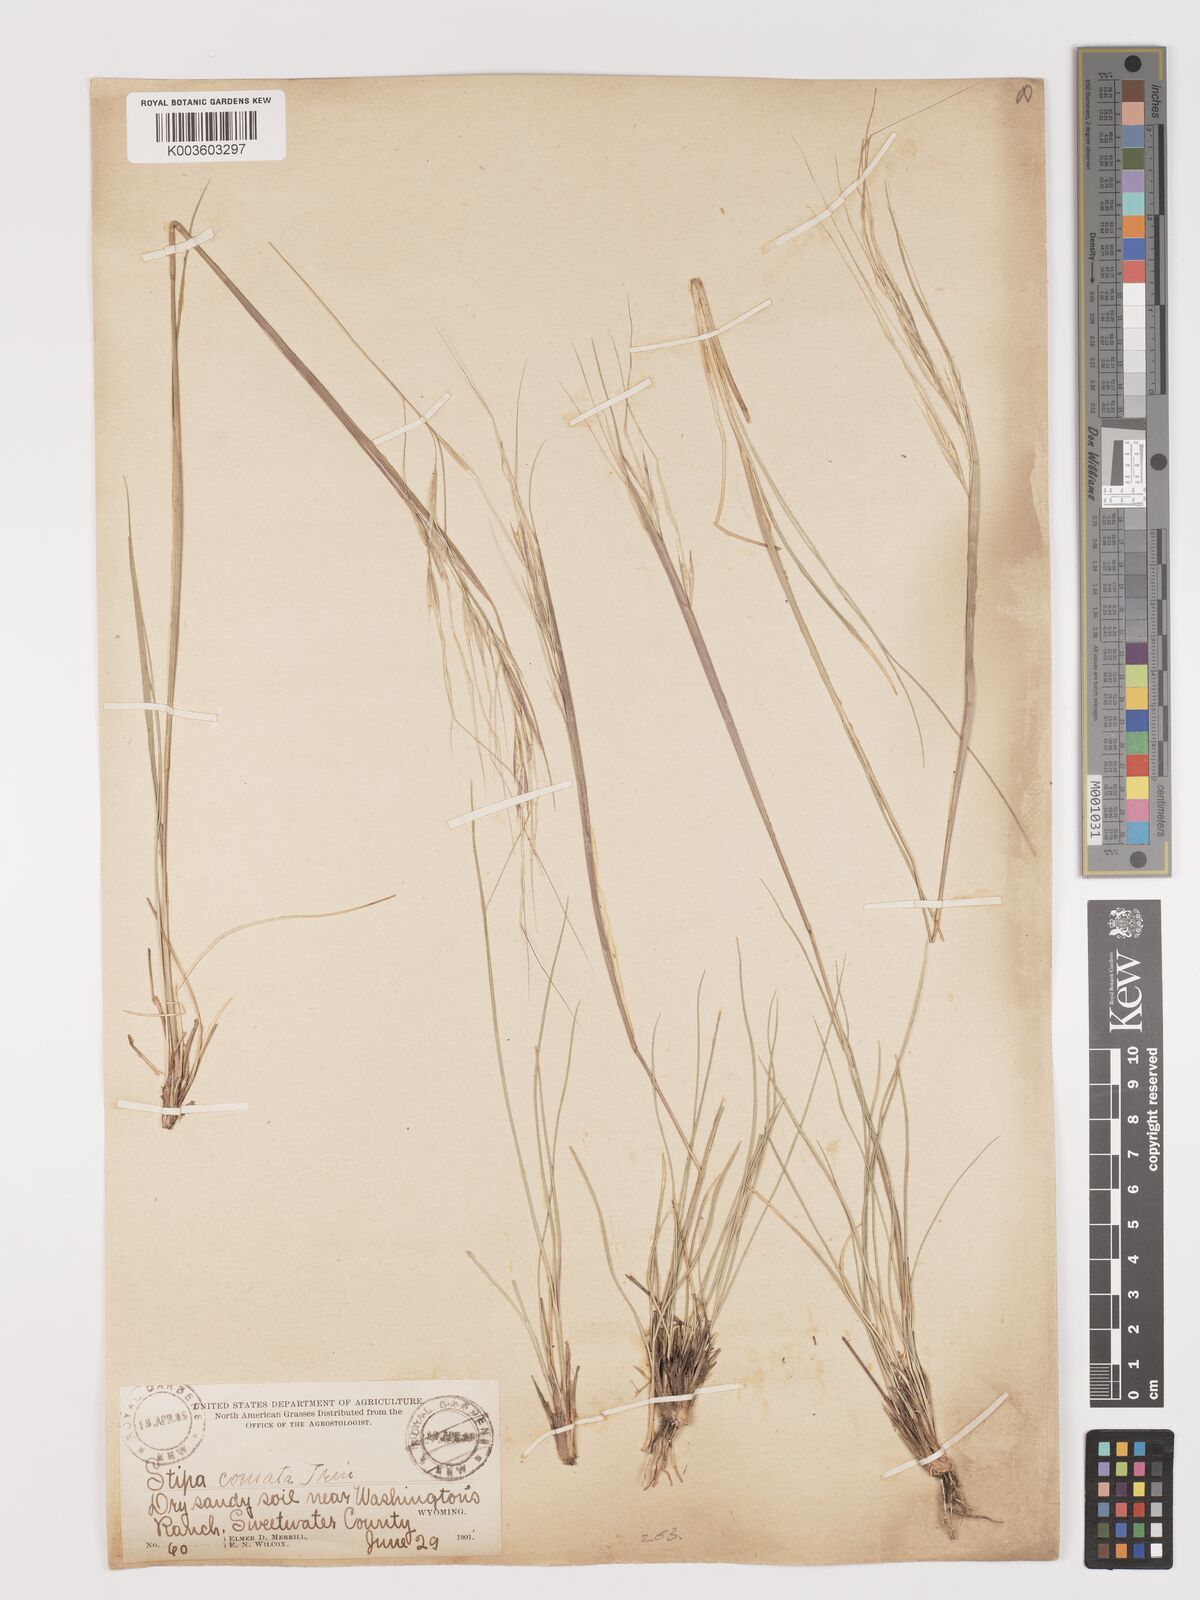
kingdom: Plantae
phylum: Tracheophyta
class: Liliopsida
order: Poales
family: Poaceae
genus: Stipa
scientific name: Stipa
